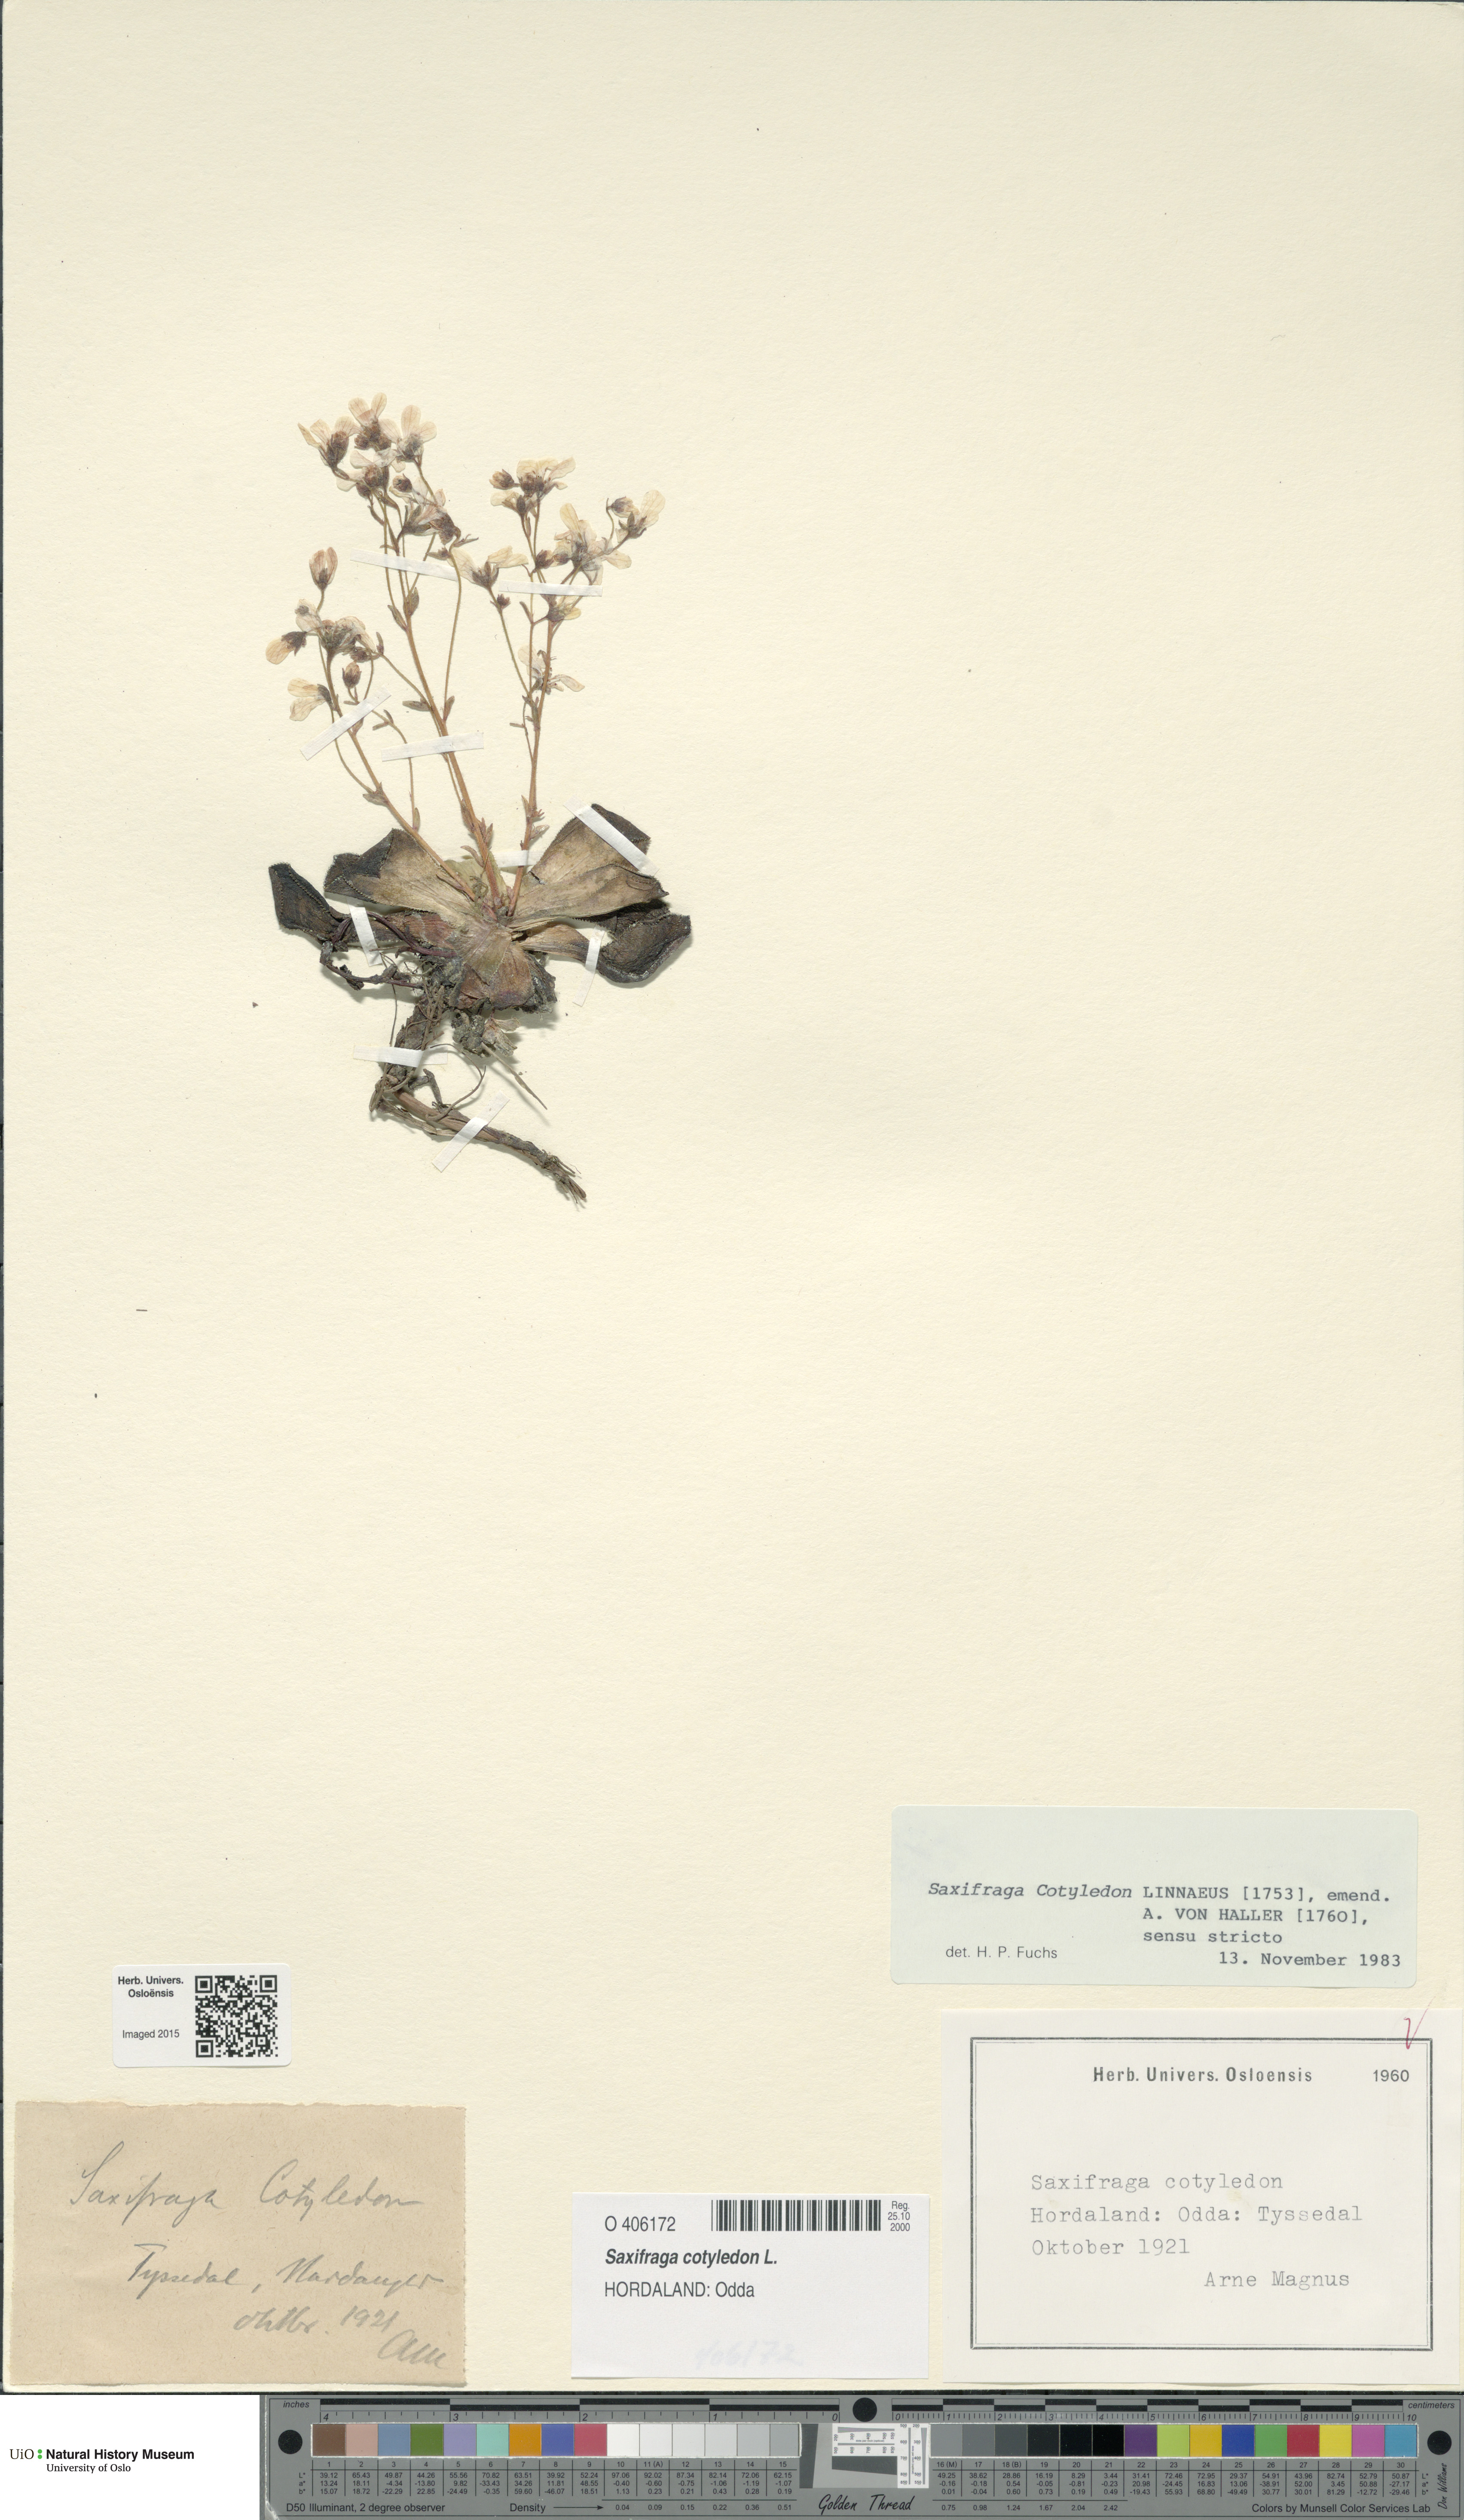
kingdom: Plantae
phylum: Tracheophyta
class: Magnoliopsida
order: Saxifragales
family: Saxifragaceae
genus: Saxifraga
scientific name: Saxifraga cotyledon
